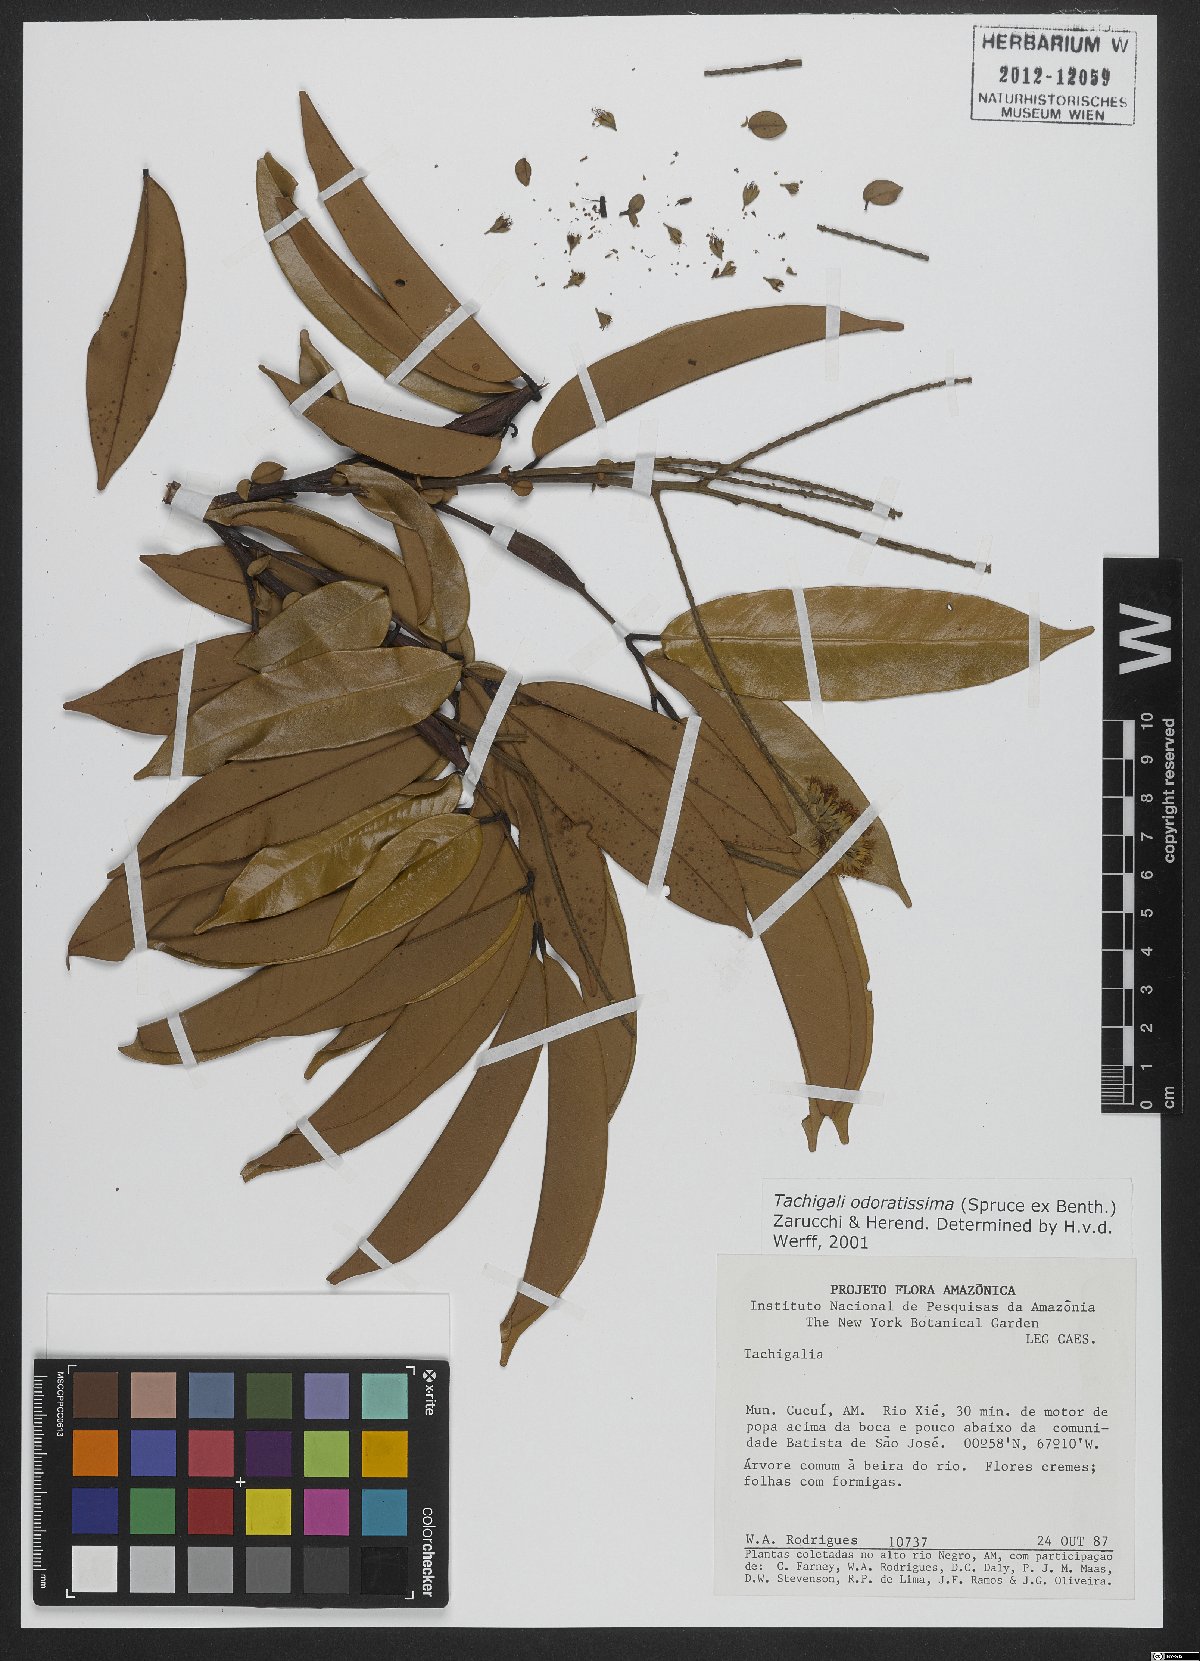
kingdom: Plantae
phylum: Tracheophyta
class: Magnoliopsida
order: Fabales
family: Fabaceae
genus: Tachigali
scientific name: Tachigali odoratissima
